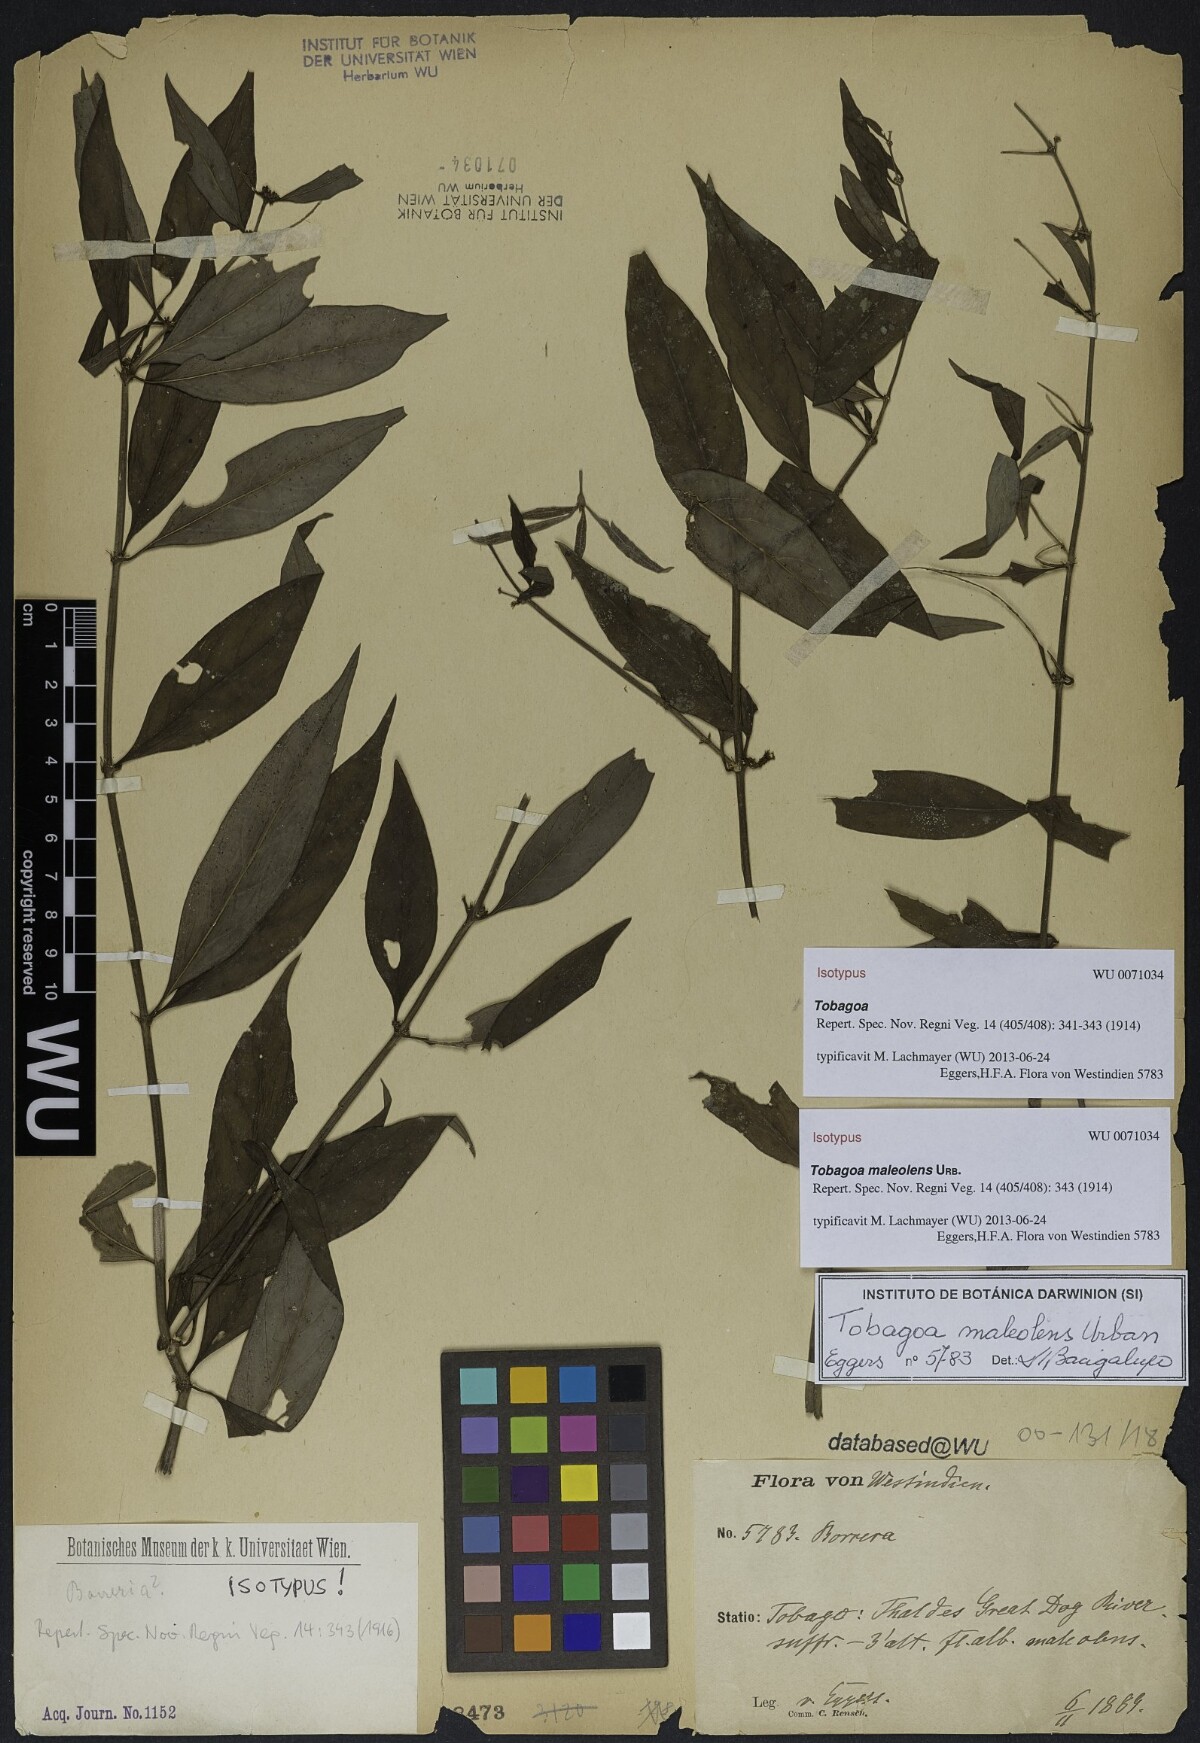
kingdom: Plantae
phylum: Tracheophyta
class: Magnoliopsida
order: Gentianales
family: Rubiaceae
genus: Tobagoa
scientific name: Tobagoa maleolens
